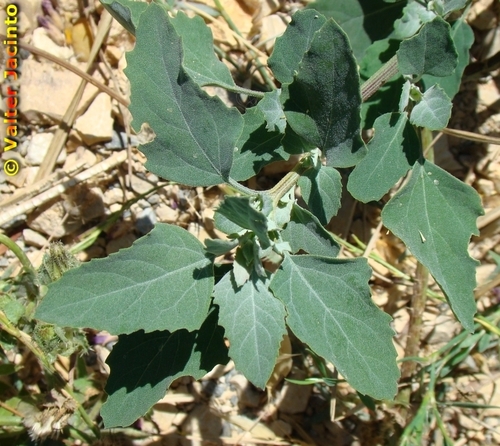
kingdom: Plantae
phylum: Tracheophyta
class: Magnoliopsida
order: Caryophyllales
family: Amaranthaceae
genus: Chenopodium
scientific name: Chenopodium album
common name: Fat-hen
